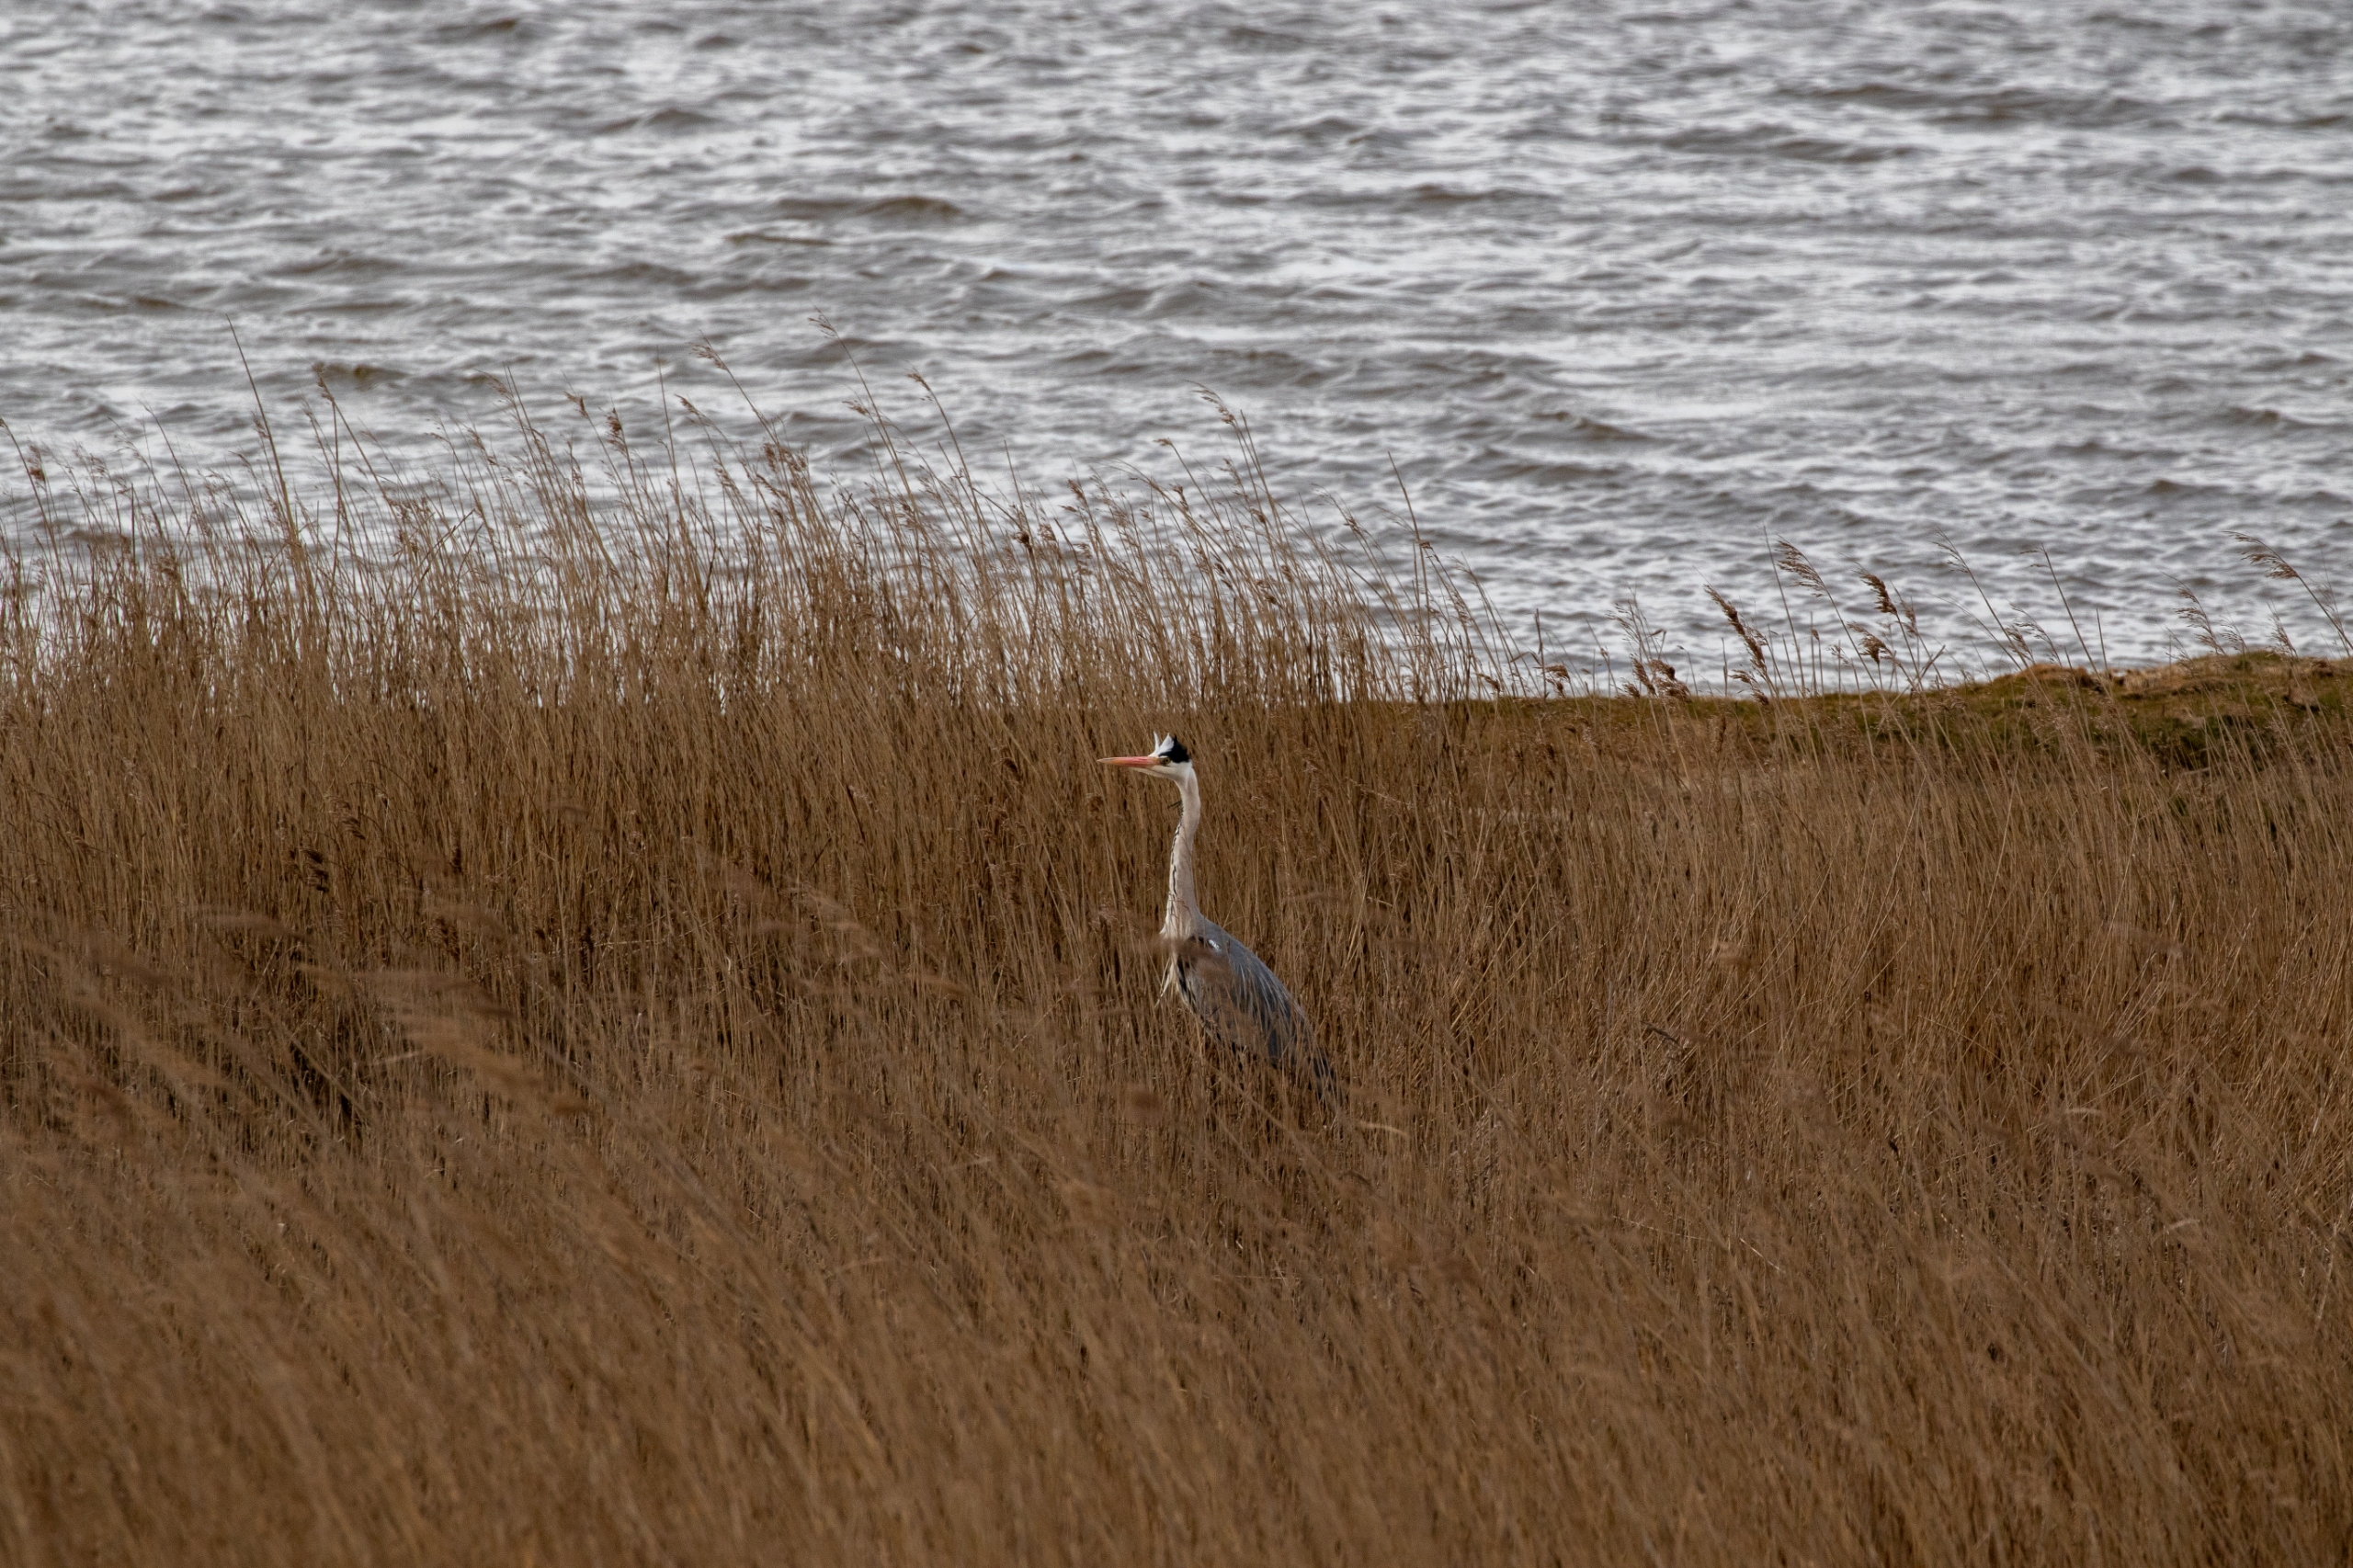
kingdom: Animalia
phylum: Chordata
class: Aves
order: Pelecaniformes
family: Ardeidae
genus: Ardea
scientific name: Ardea cinerea
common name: Fiskehejre
